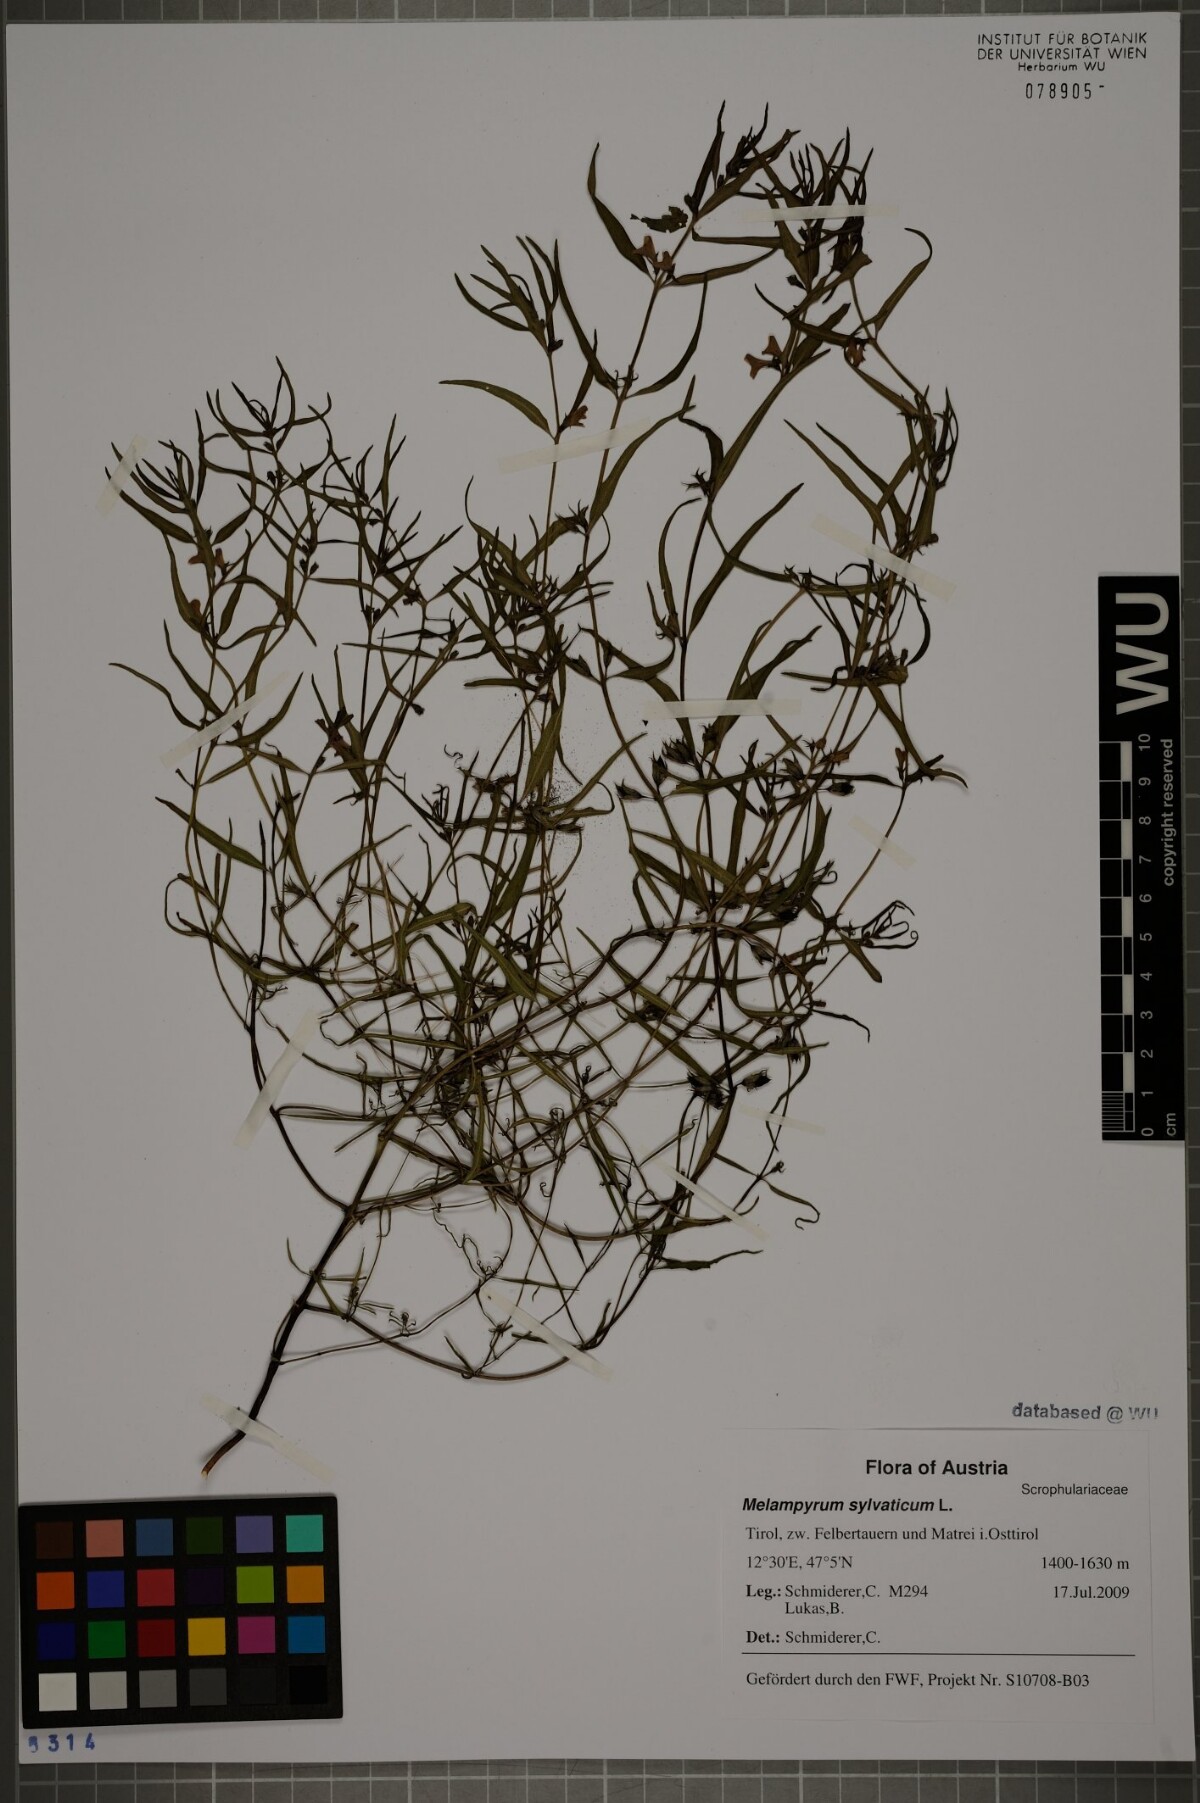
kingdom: Plantae
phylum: Tracheophyta
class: Magnoliopsida
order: Lamiales
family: Orobanchaceae
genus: Melampyrum
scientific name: Melampyrum sylvaticum
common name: Small cow-wheat
